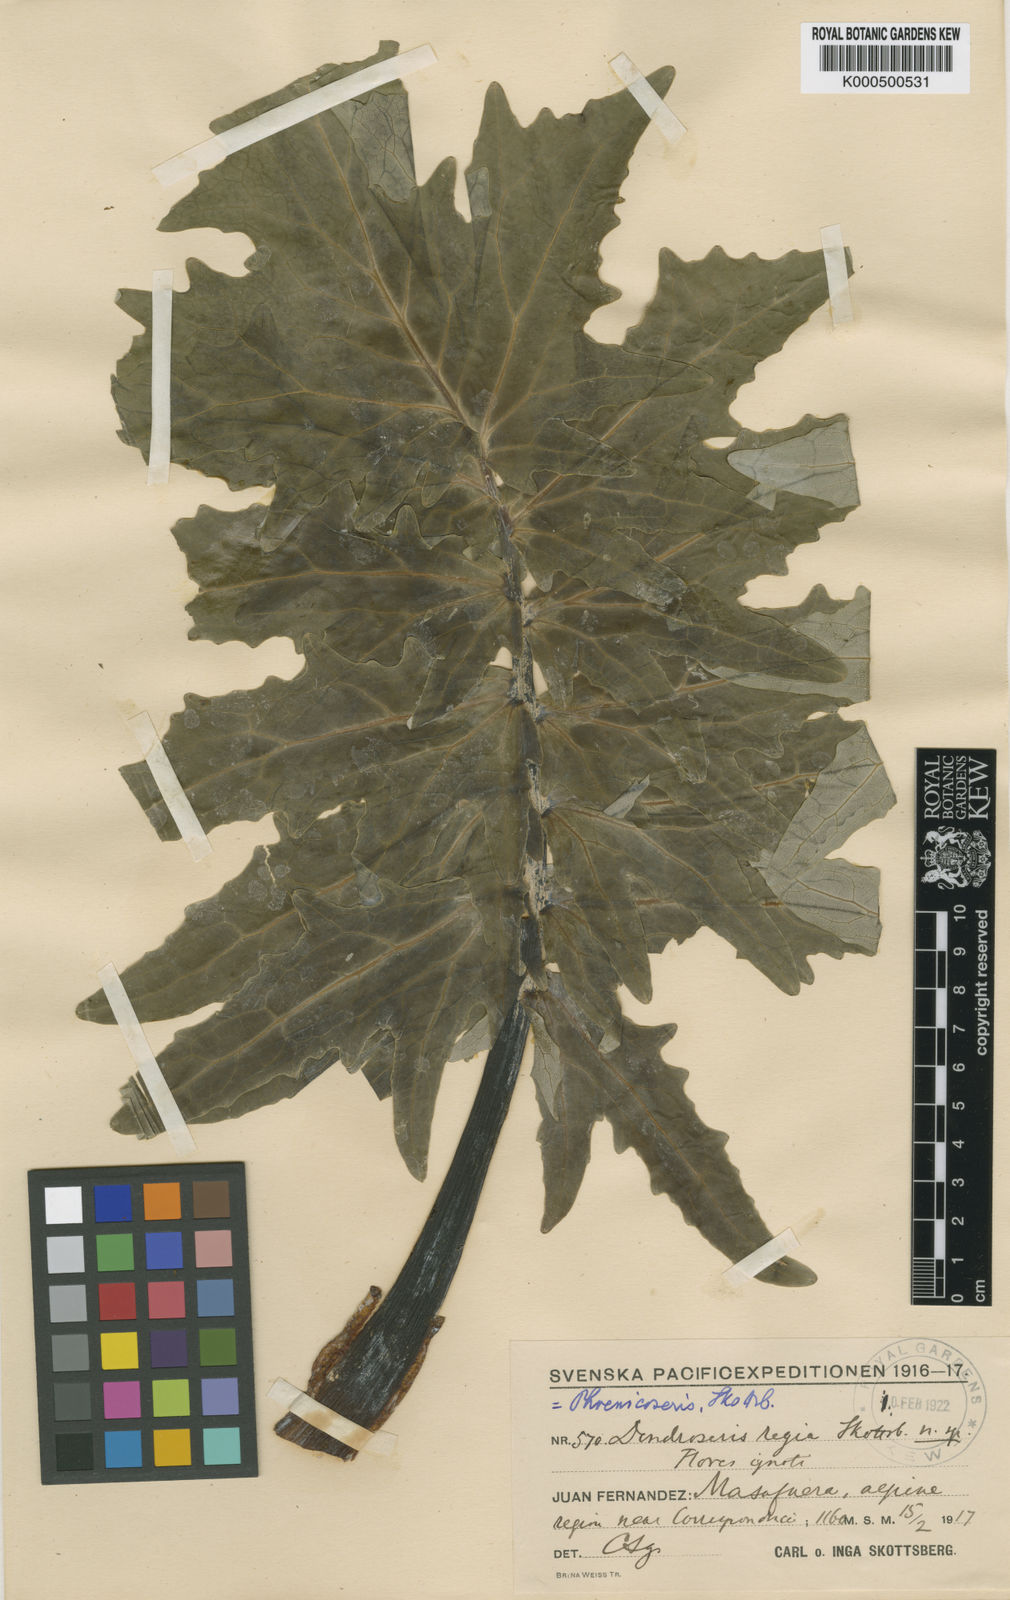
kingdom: Plantae
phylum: Tracheophyta
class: Magnoliopsida
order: Asterales
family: Asteraceae
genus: Sonchus
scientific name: Sonchus regius
